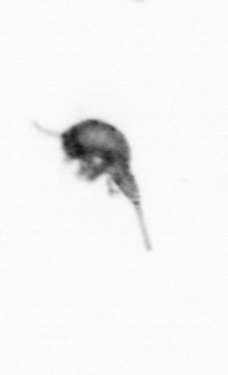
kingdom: Animalia
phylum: Arthropoda
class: Copepoda
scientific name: Copepoda
